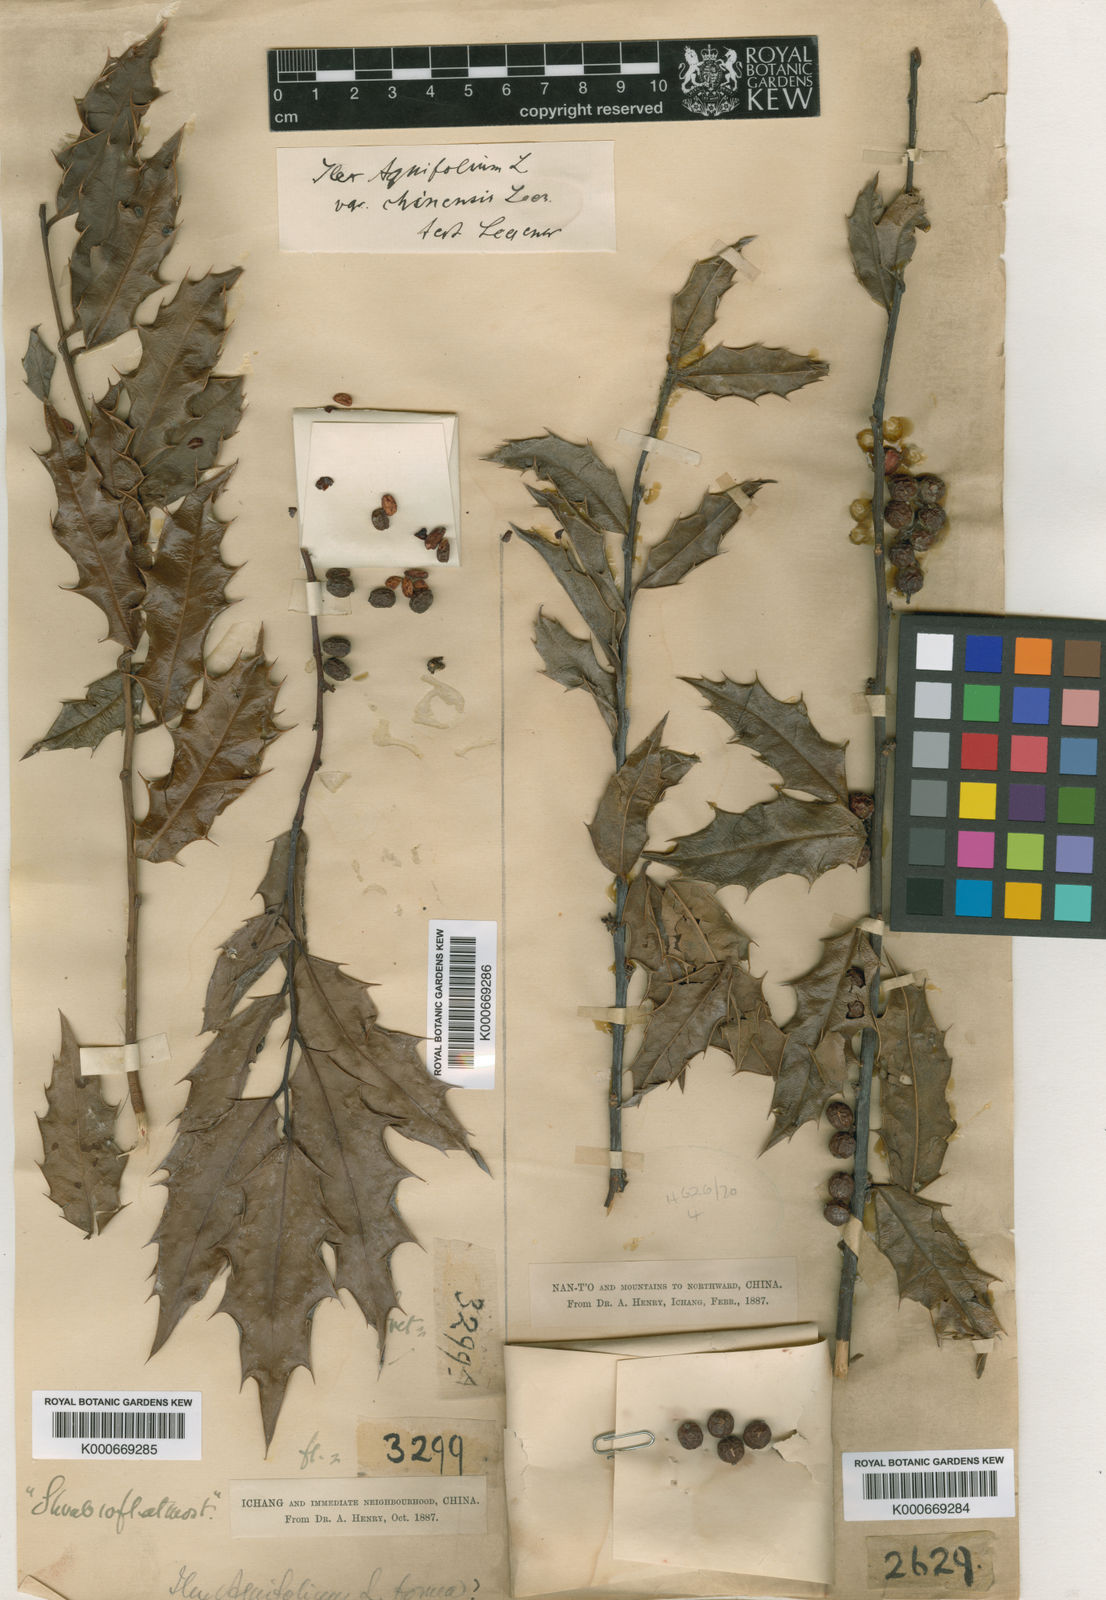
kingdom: Plantae
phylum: Tracheophyta
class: Magnoliopsida
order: Aquifoliales
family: Aquifoliaceae
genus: Ilex
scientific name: Ilex centrochinensis
